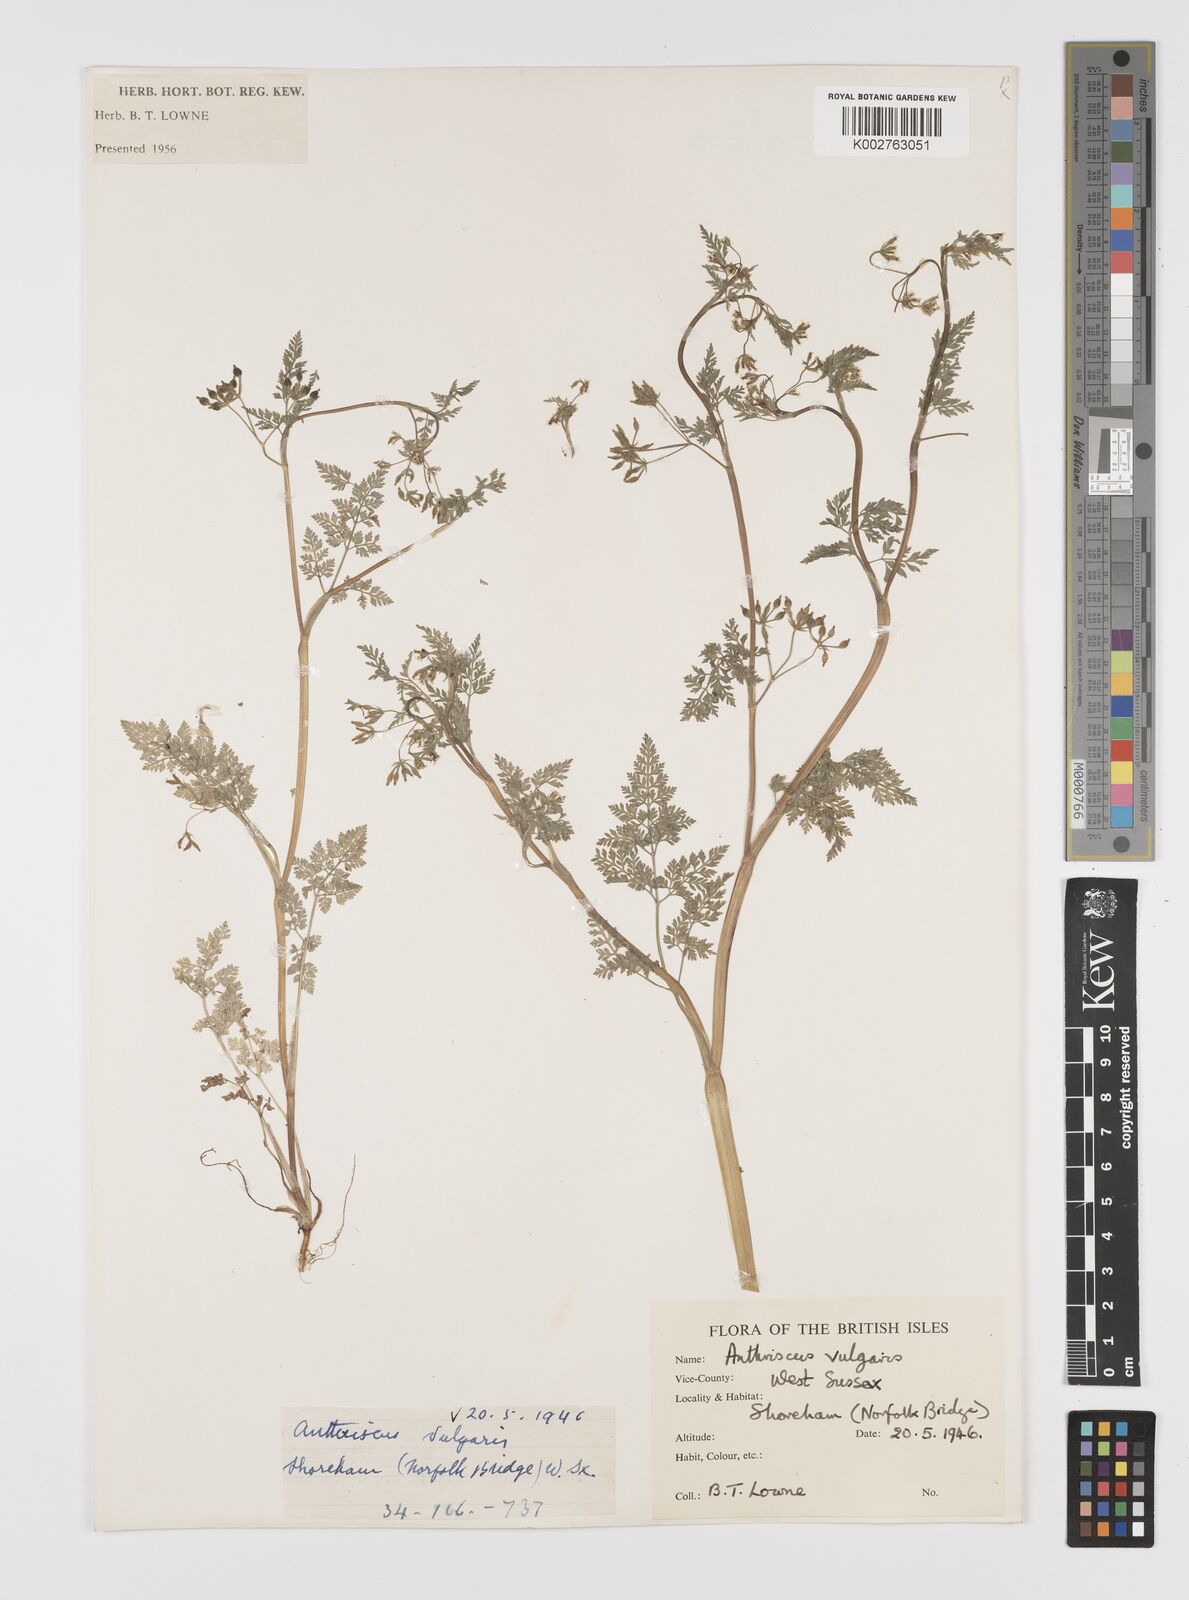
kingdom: Plantae
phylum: Tracheophyta
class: Magnoliopsida
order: Apiales
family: Apiaceae
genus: Anthriscus
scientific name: Anthriscus caucalis
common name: Bur chervil
